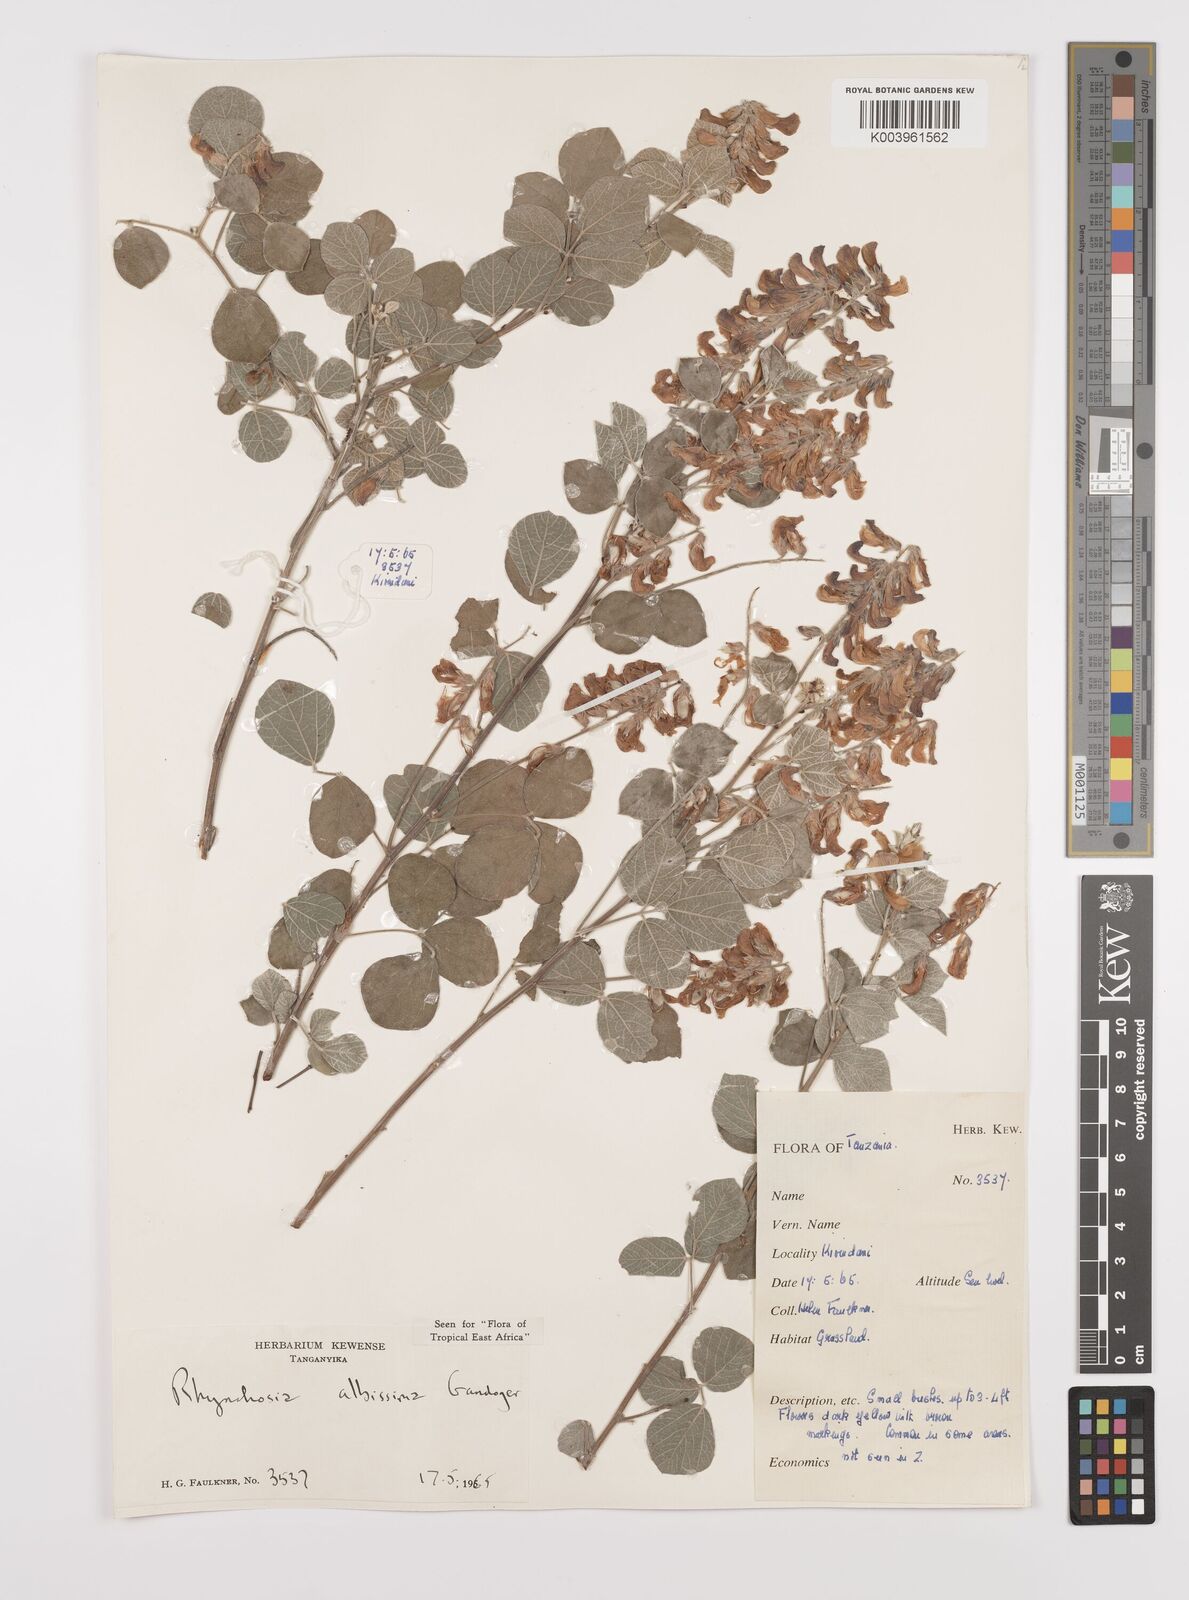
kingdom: Plantae
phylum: Tracheophyta
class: Magnoliopsida
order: Fabales
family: Fabaceae
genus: Rhynchosia
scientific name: Rhynchosia albissima
